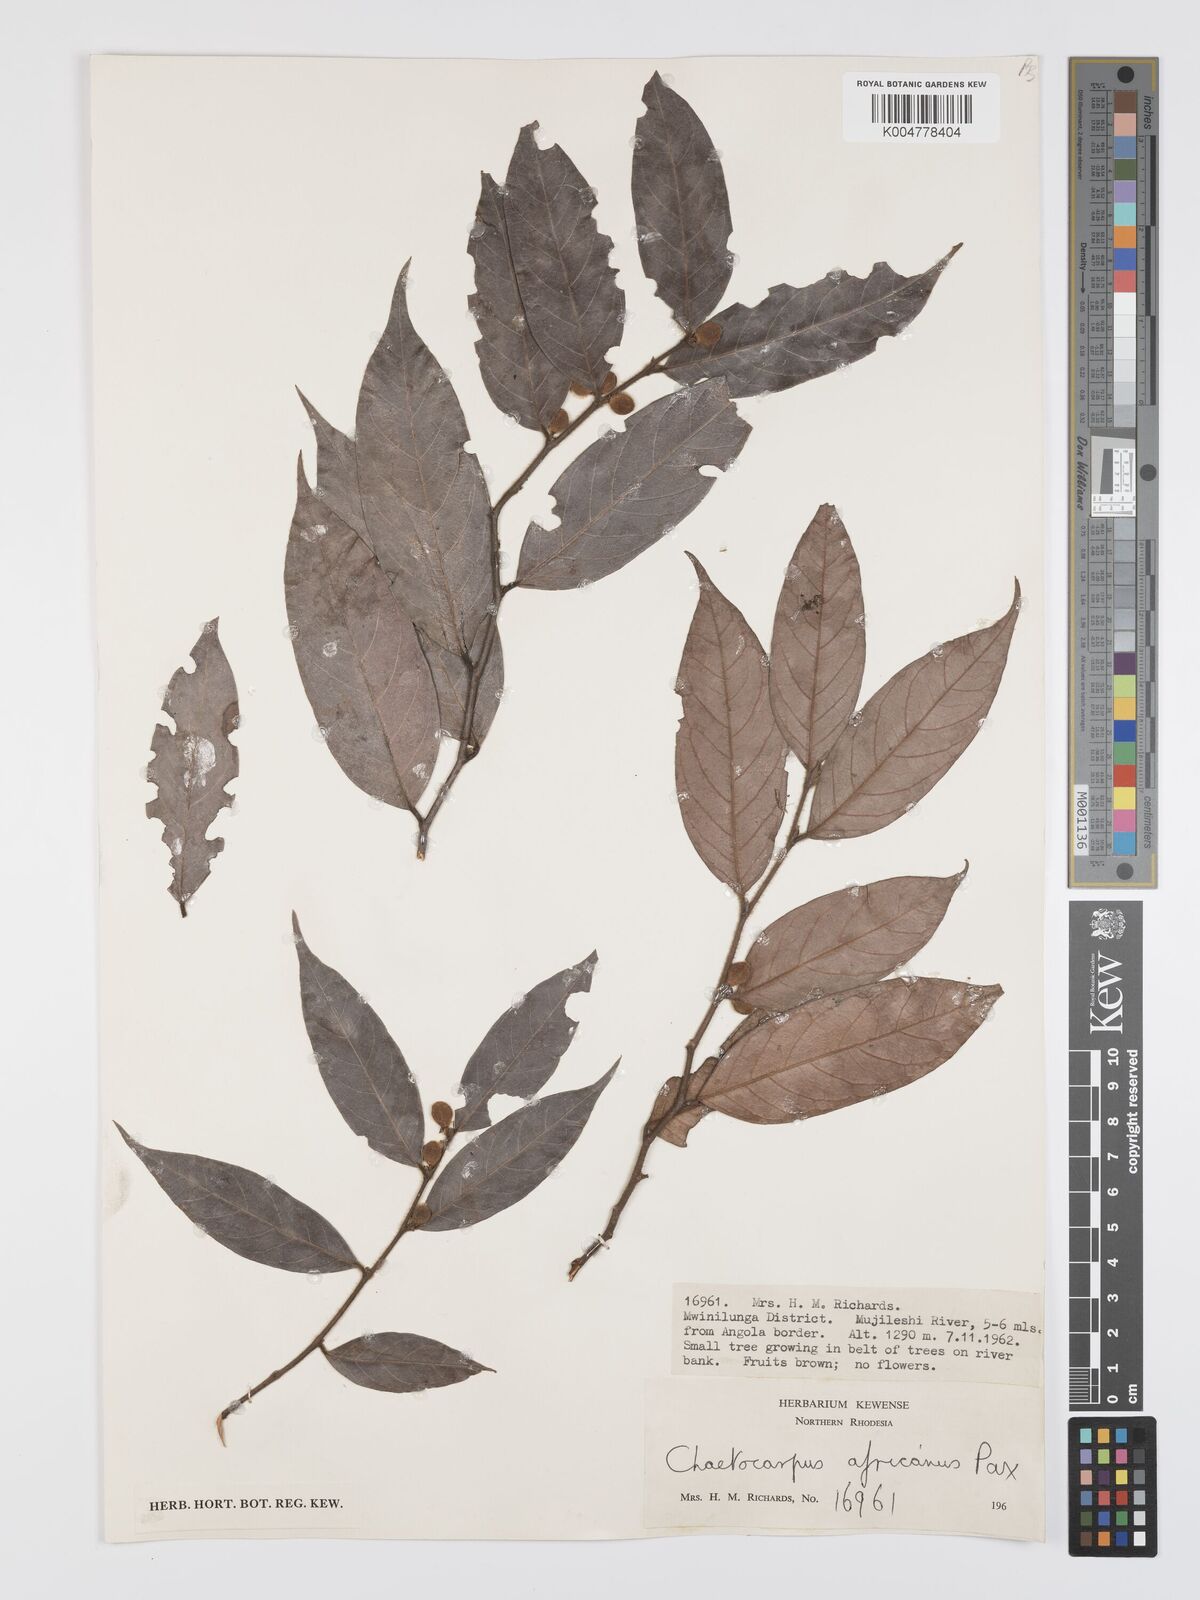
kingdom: Plantae
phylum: Tracheophyta
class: Magnoliopsida
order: Malpighiales
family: Peraceae
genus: Chaetocarpus
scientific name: Chaetocarpus africanus
